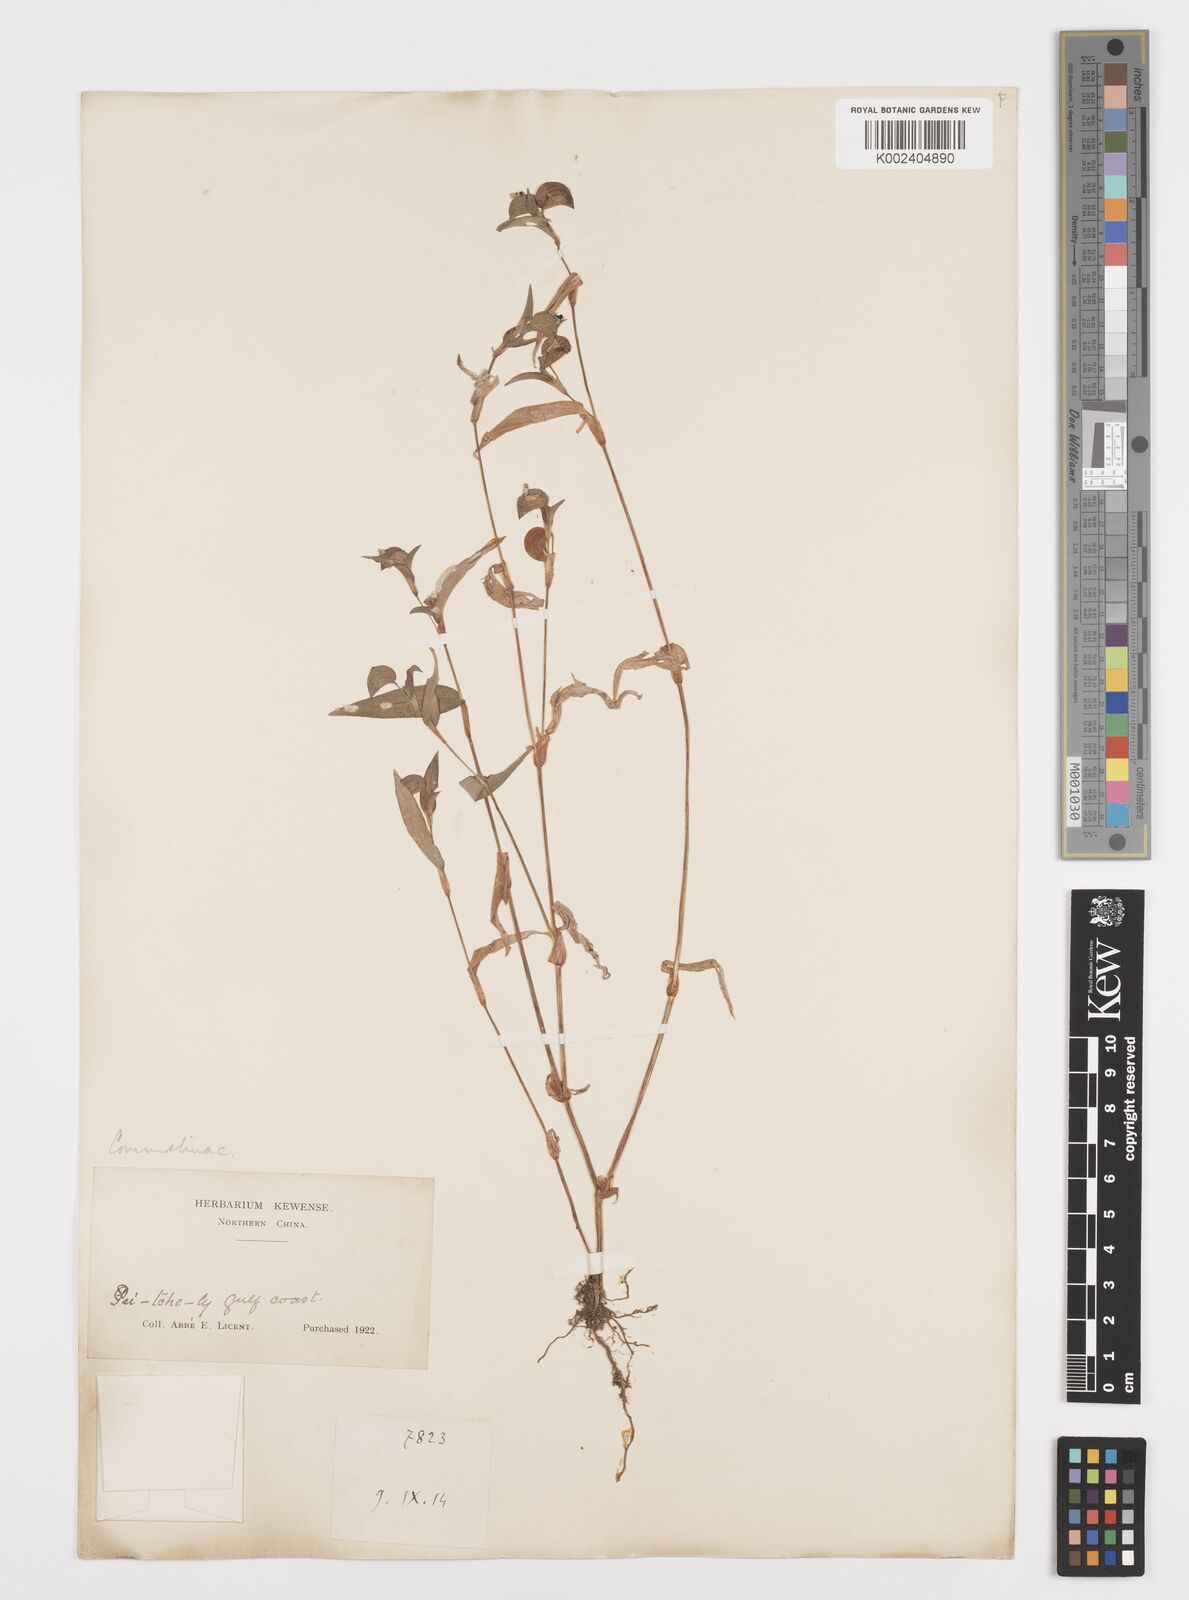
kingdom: Plantae
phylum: Tracheophyta
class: Liliopsida
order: Commelinales
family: Commelinaceae
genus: Commelina
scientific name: Commelina
